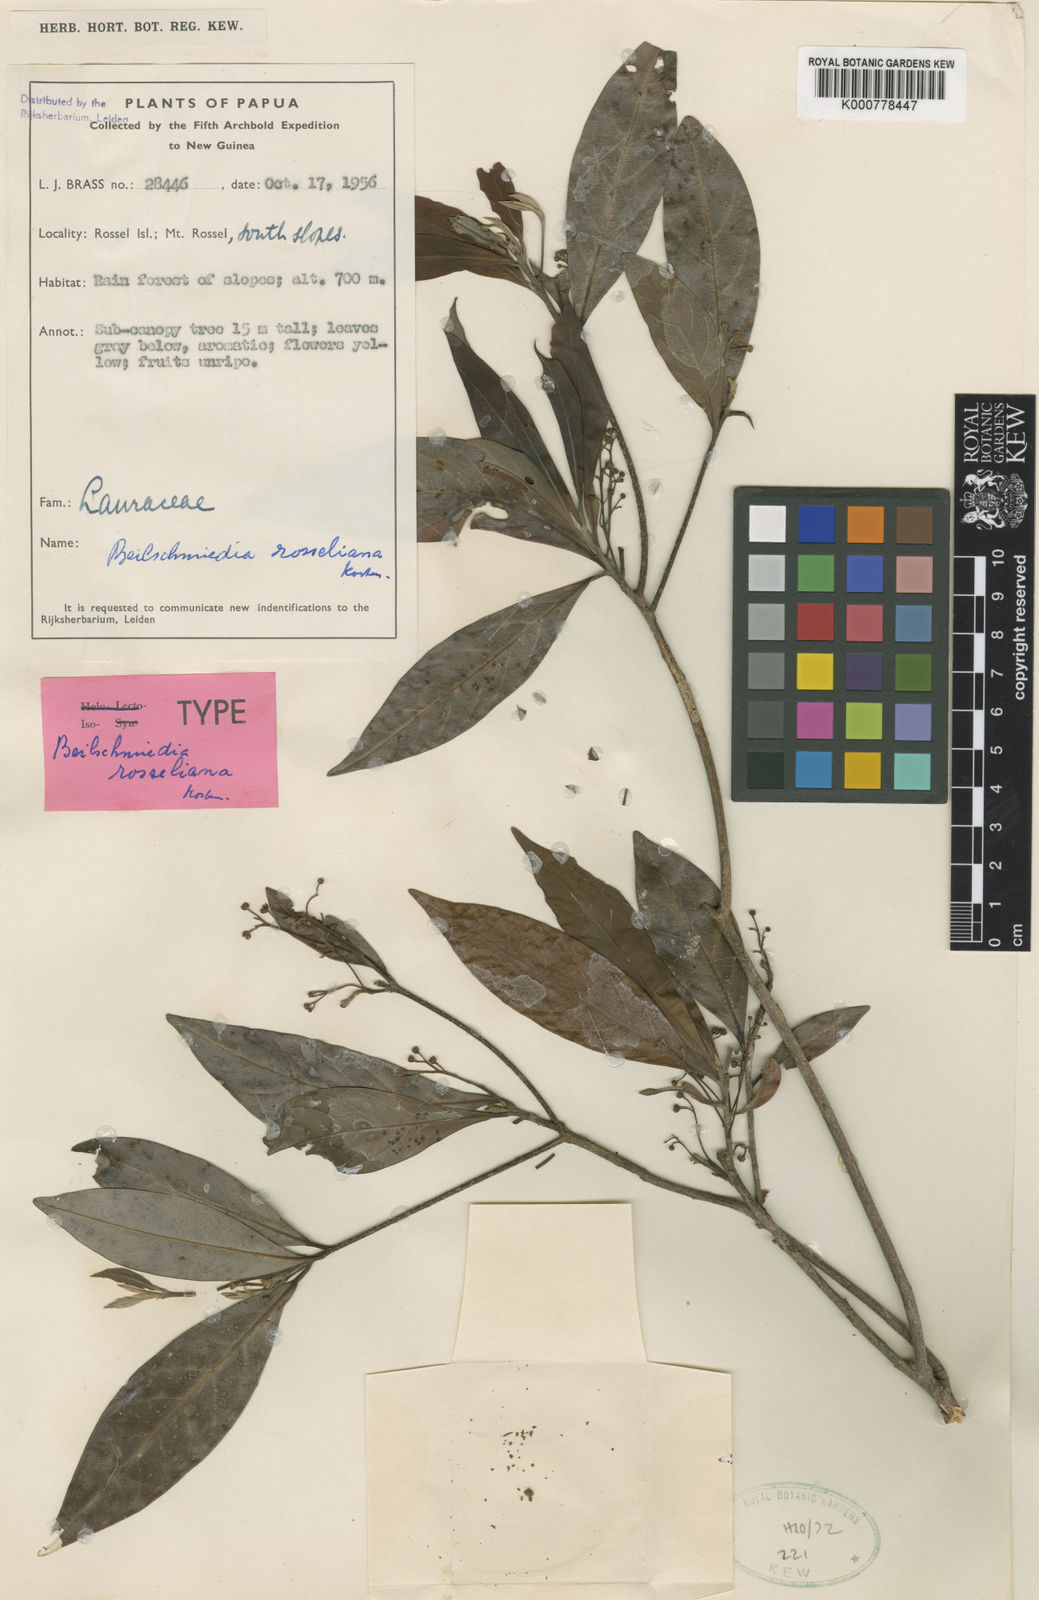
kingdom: Plantae
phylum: Tracheophyta
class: Magnoliopsida
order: Laurales
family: Lauraceae
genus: Beilschmiedia
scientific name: Beilschmiedia rosseliana
